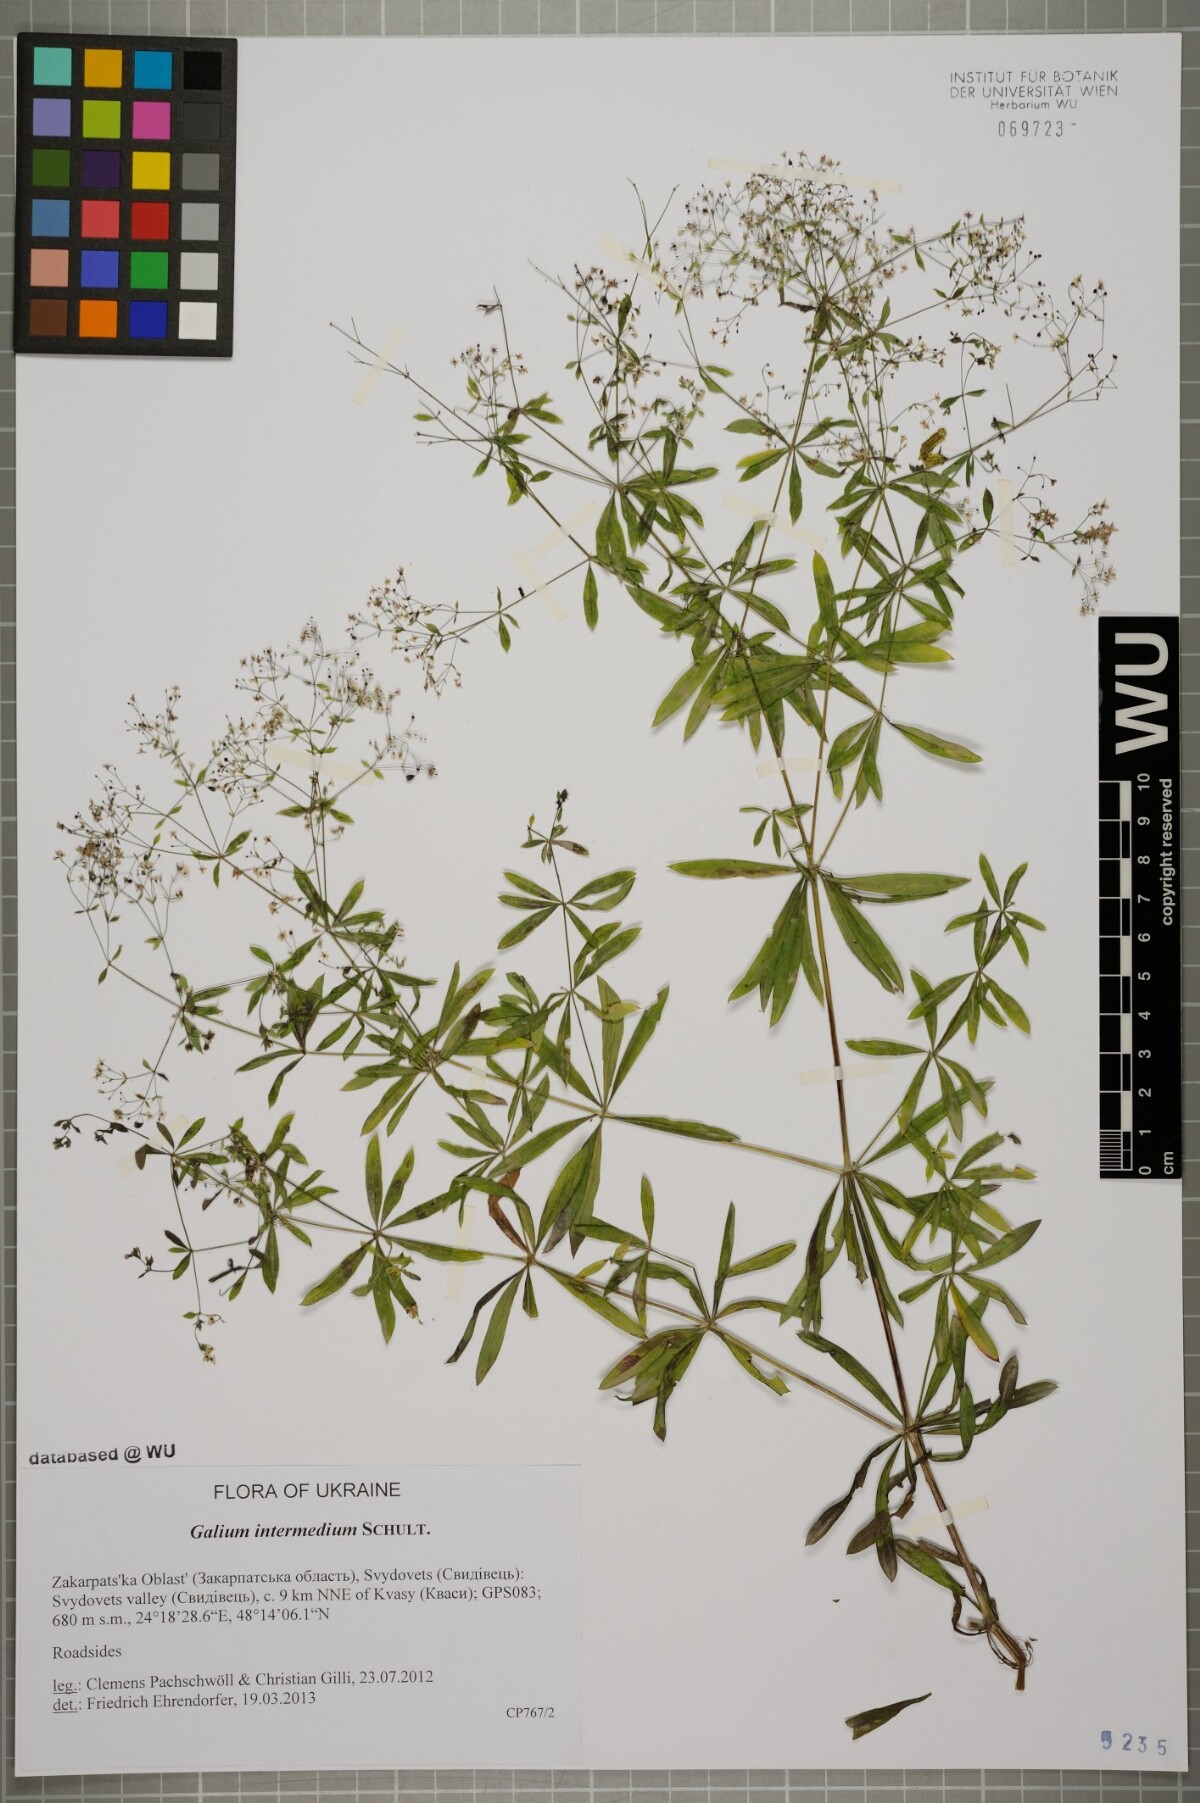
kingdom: Plantae
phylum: Tracheophyta
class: Magnoliopsida
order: Gentianales
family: Rubiaceae
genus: Galium
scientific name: Galium intermedium
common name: Bedstraw
